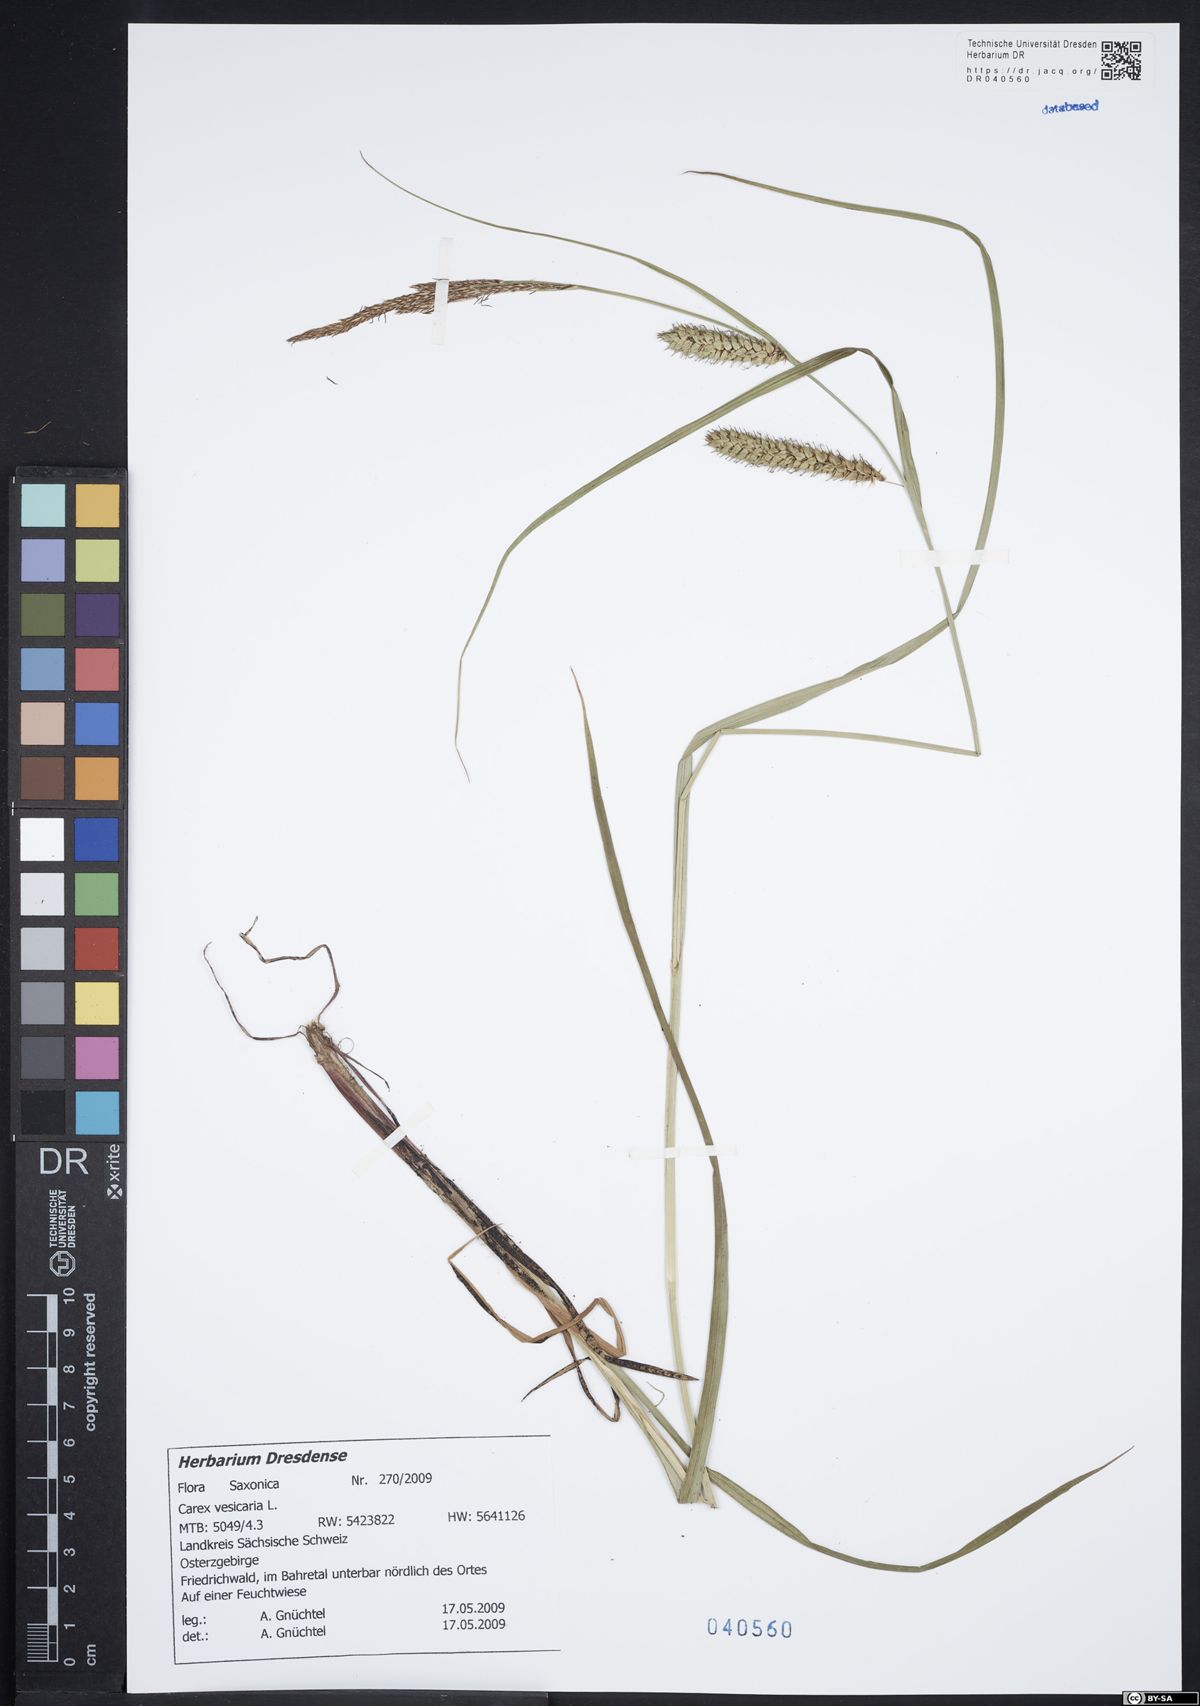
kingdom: Plantae
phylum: Tracheophyta
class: Liliopsida
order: Poales
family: Cyperaceae
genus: Carex
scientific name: Carex vesicaria
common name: Bladder-sedge
